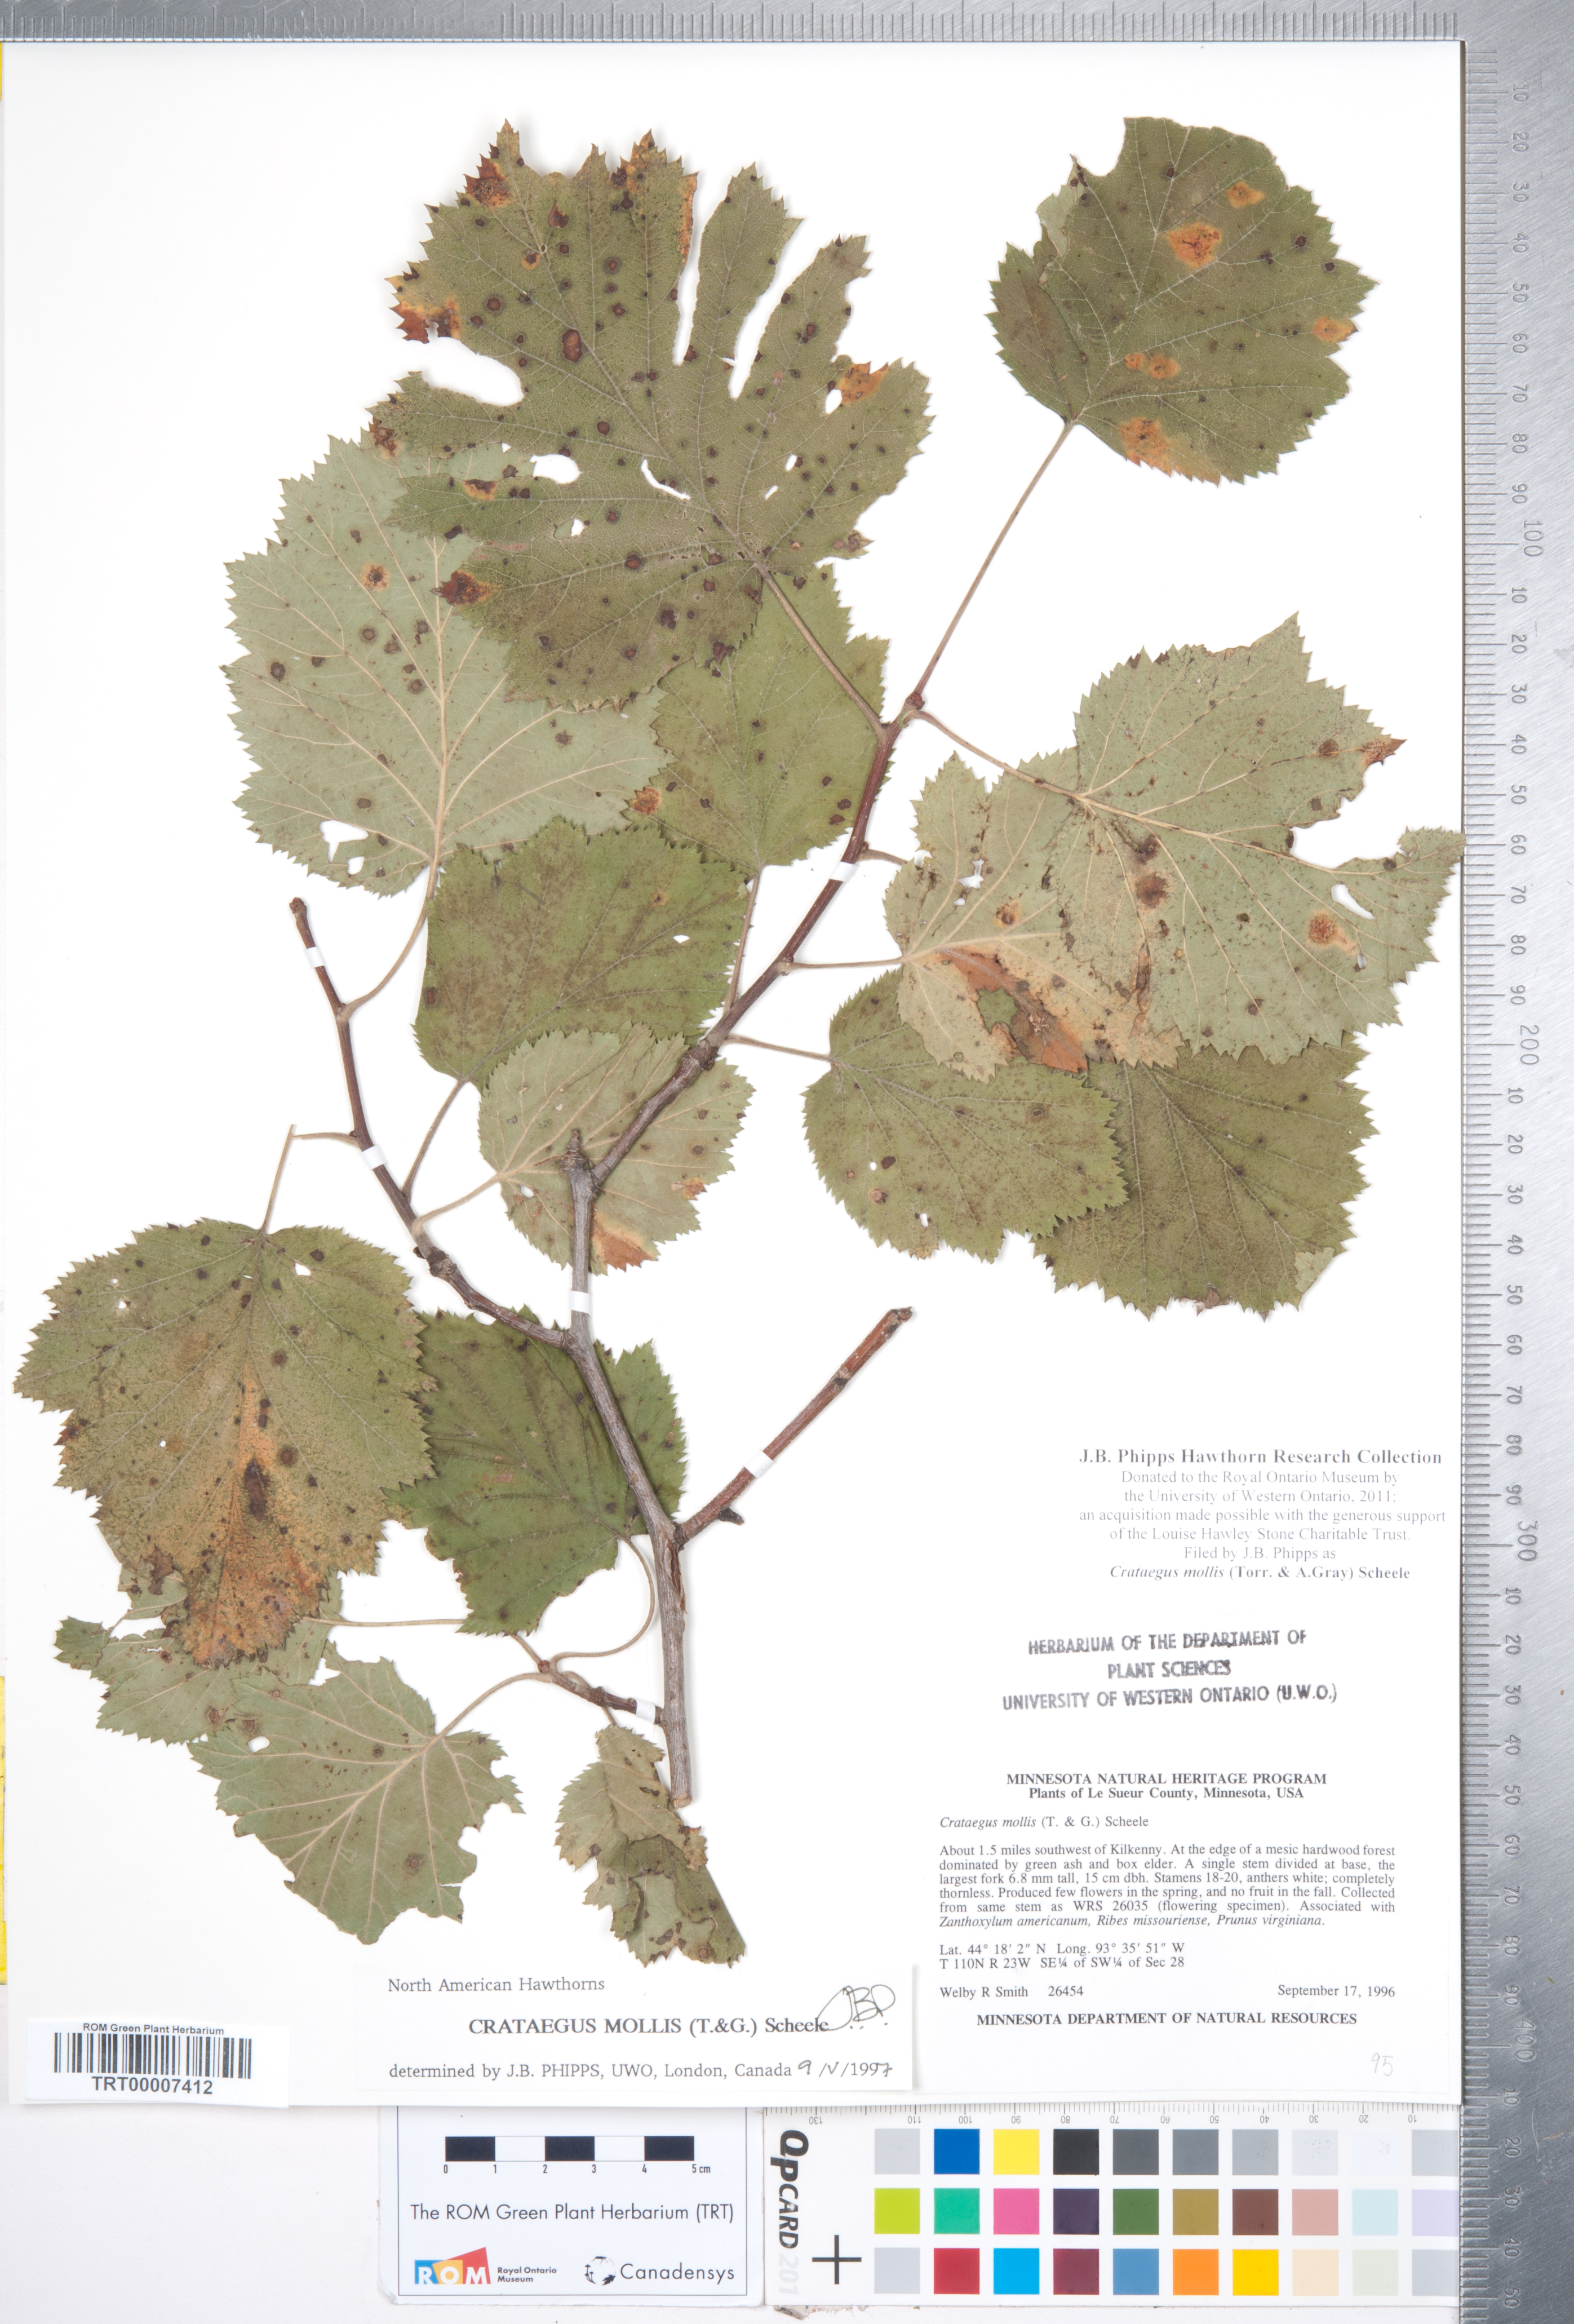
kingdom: Plantae
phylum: Tracheophyta
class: Magnoliopsida
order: Rosales
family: Rosaceae
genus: Crataegus
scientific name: Crataegus mollis
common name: Downy hawthorn
